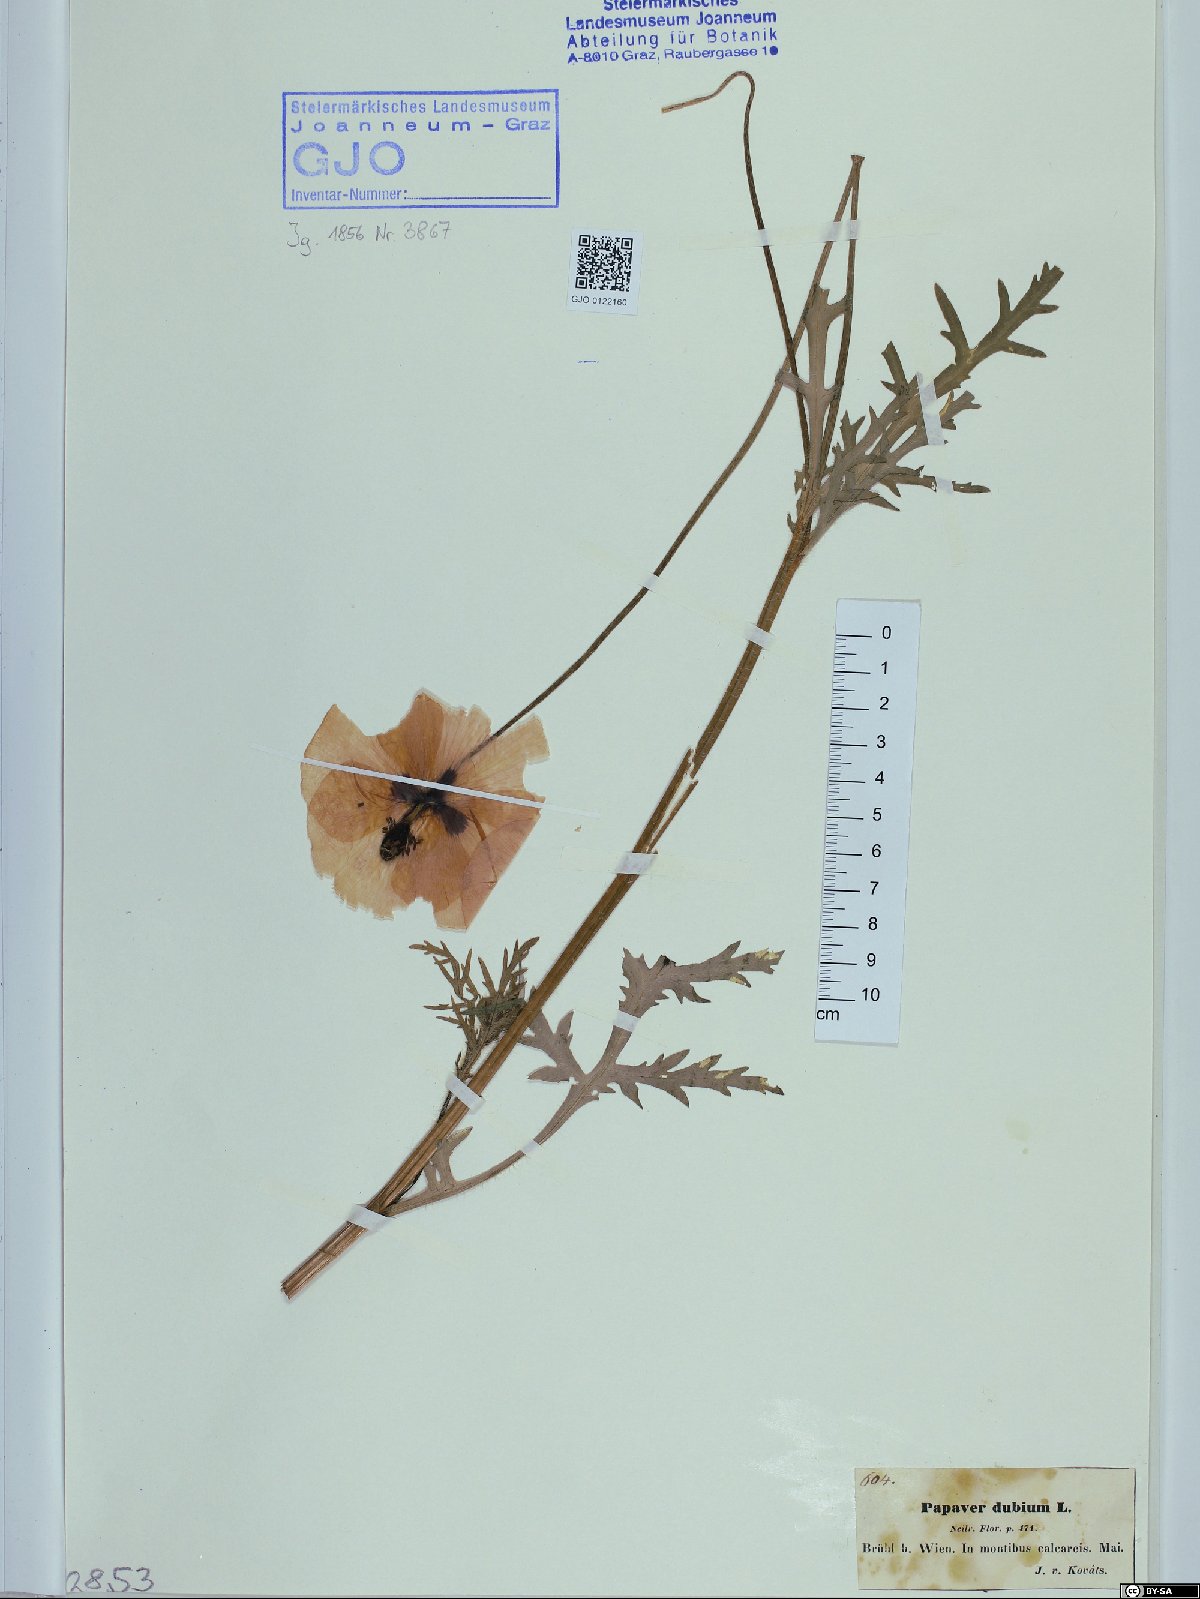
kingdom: Plantae
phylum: Tracheophyta
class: Magnoliopsida
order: Ranunculales
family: Papaveraceae
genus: Papaver
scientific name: Papaver dubium
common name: Long-headed poppy
